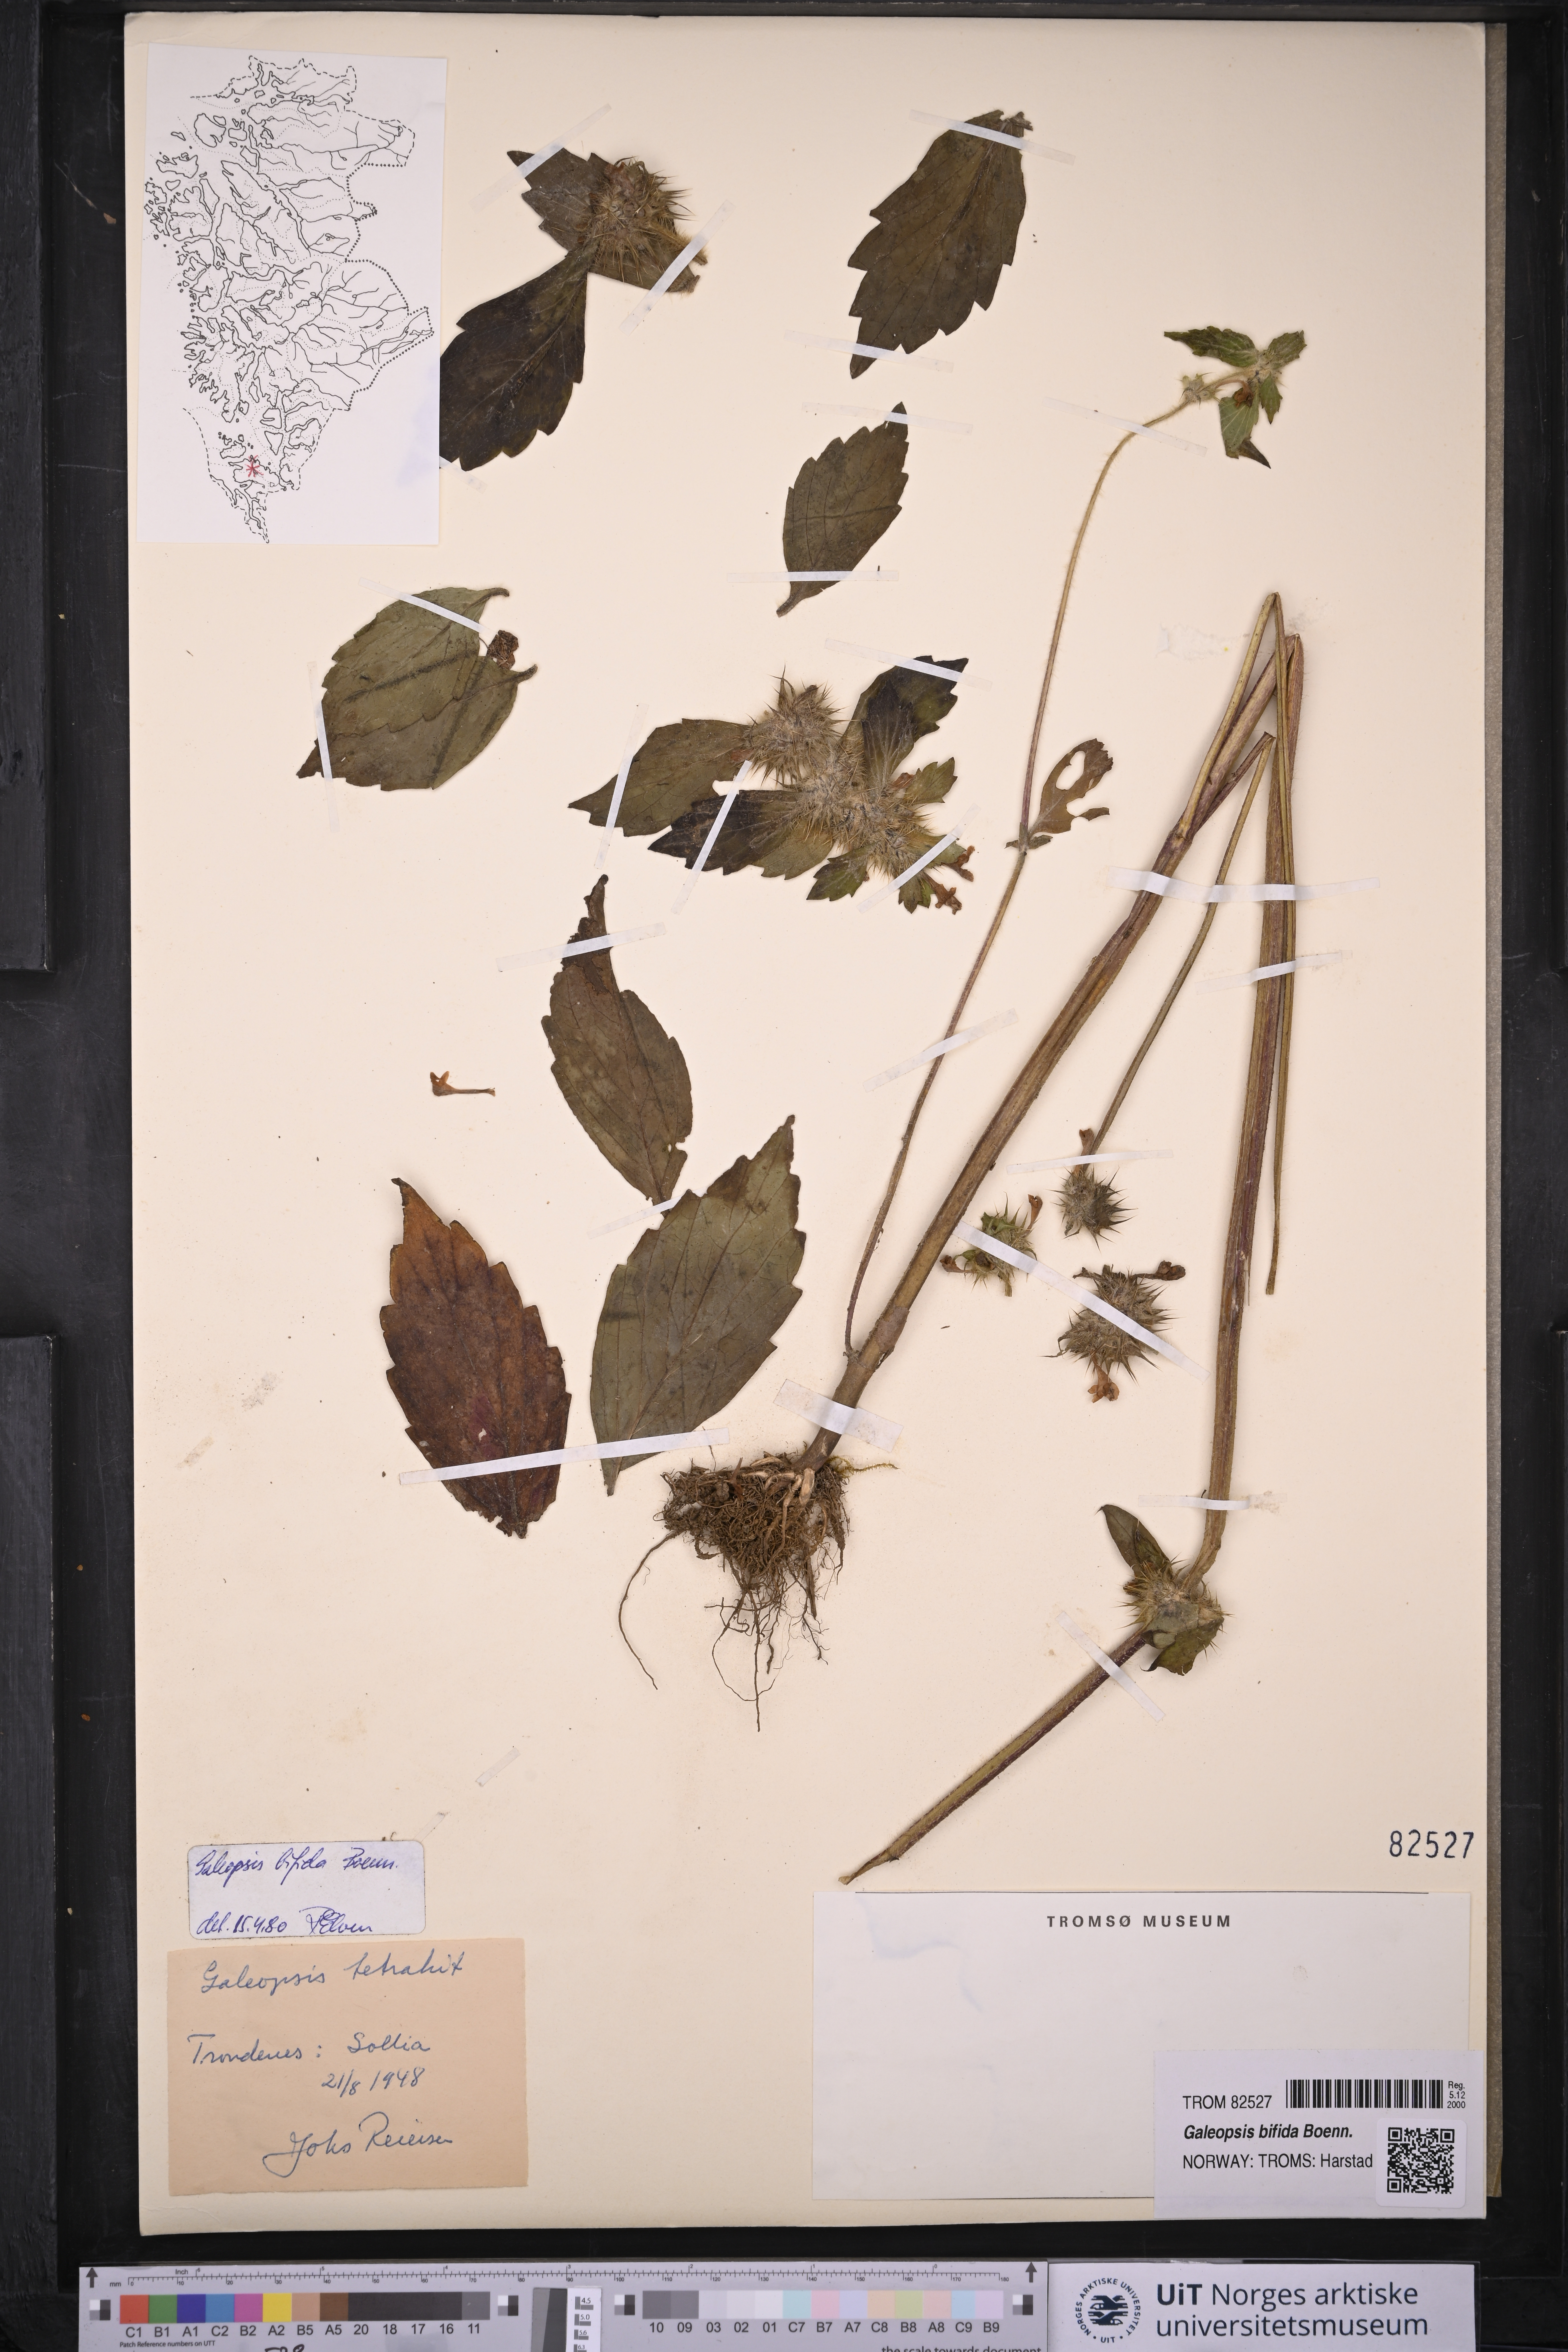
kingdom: Plantae
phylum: Tracheophyta
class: Magnoliopsida
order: Lamiales
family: Lamiaceae
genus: Galeopsis
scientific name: Galeopsis bifida
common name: Bifid hemp-nettle
